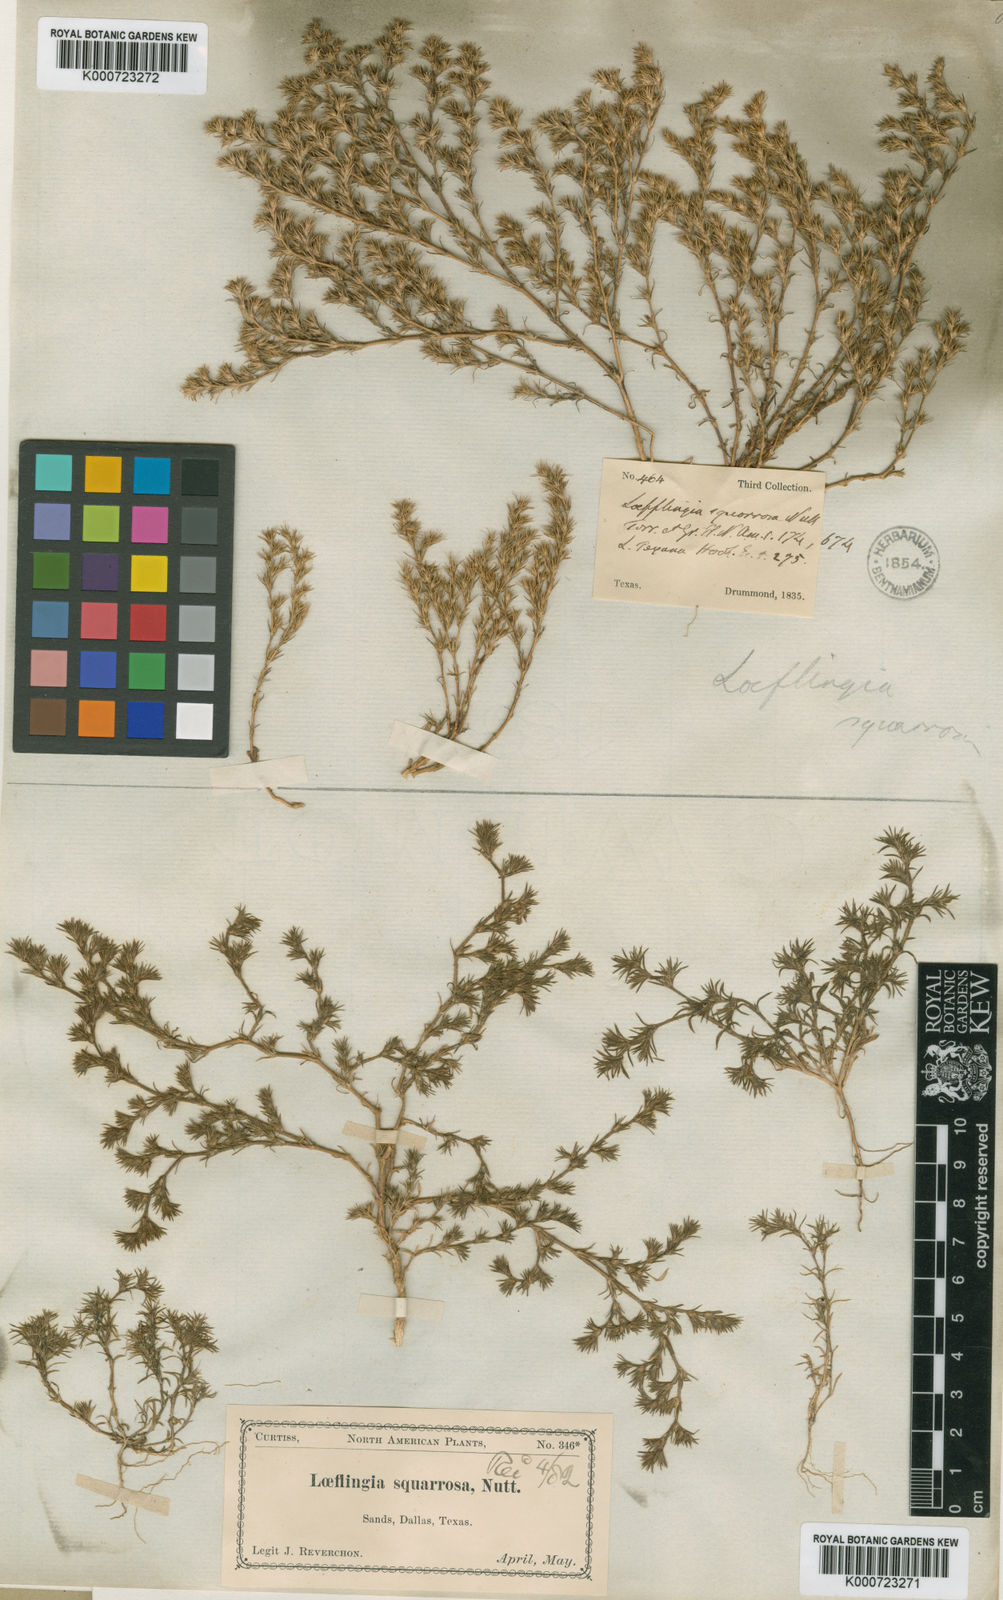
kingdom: Plantae
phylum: Tracheophyta
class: Magnoliopsida
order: Caryophyllales
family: Caryophyllaceae
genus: Loeflingia
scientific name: Loeflingia squarrosa
